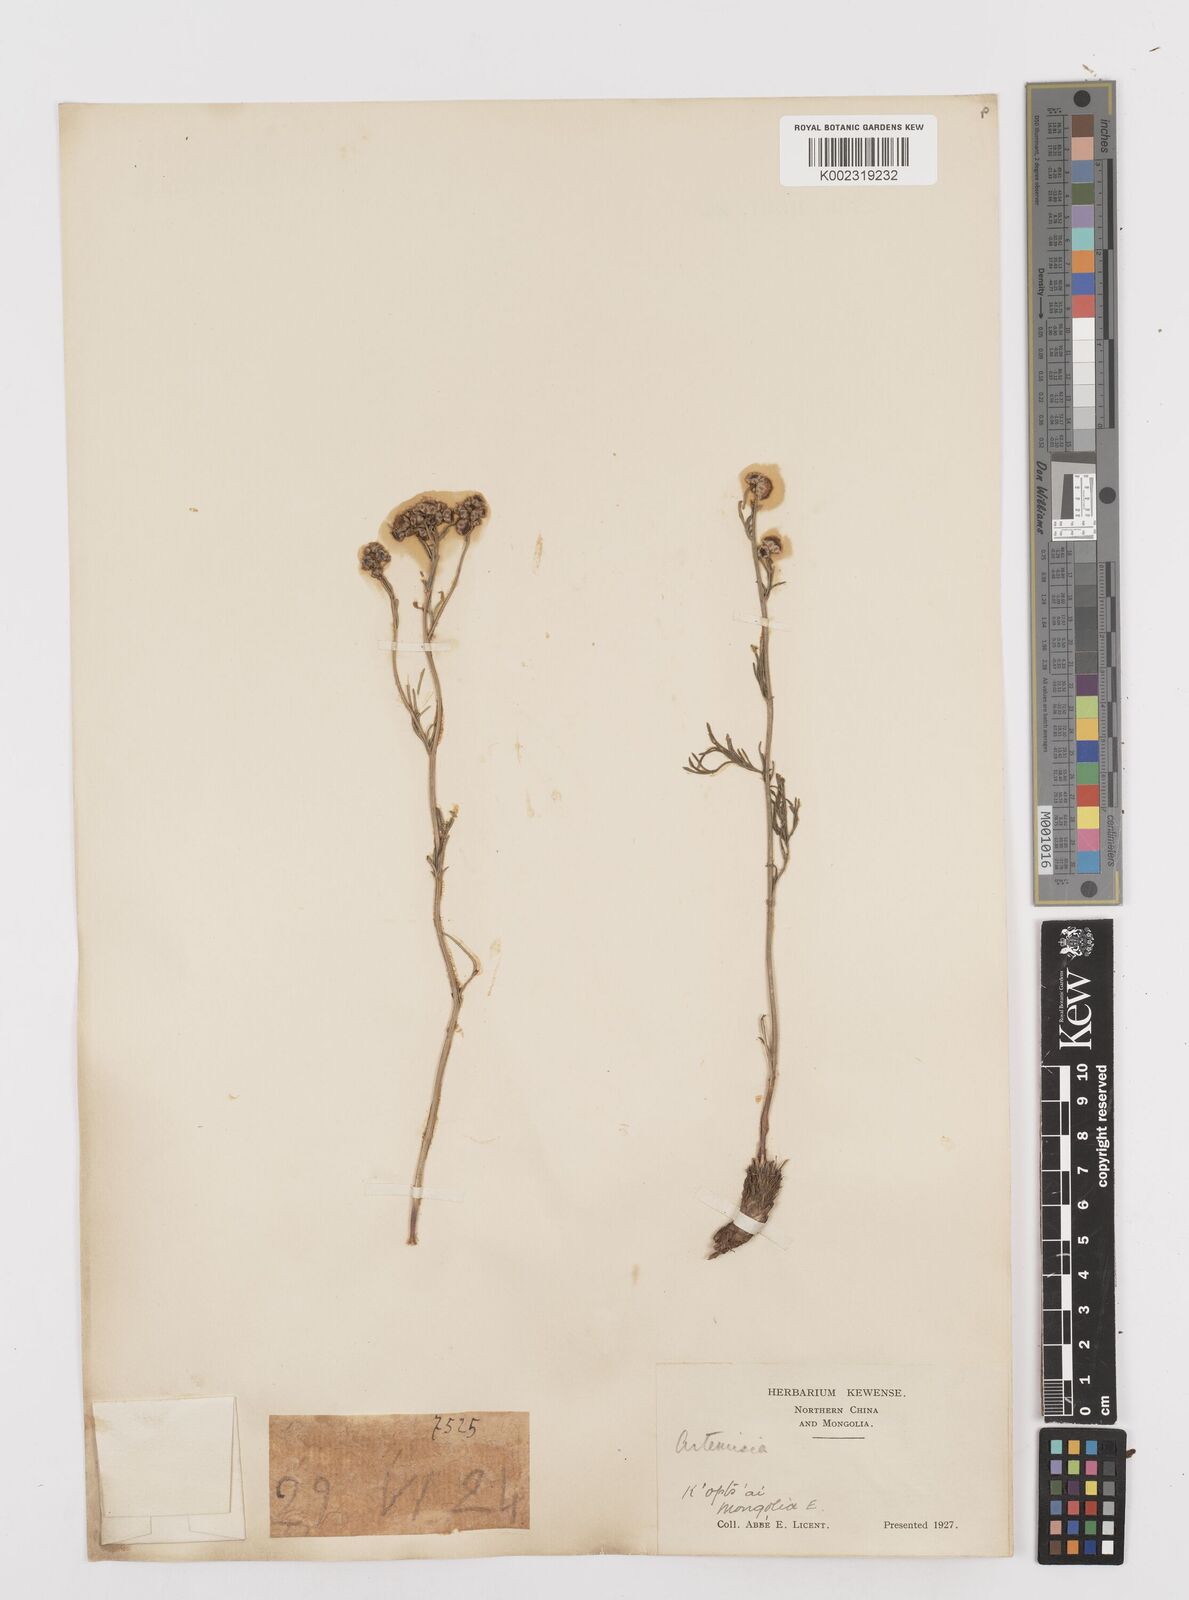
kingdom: Plantae
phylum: Tracheophyta
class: Magnoliopsida
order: Asterales
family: Asteraceae
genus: Filifolium
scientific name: Filifolium sibiricum
